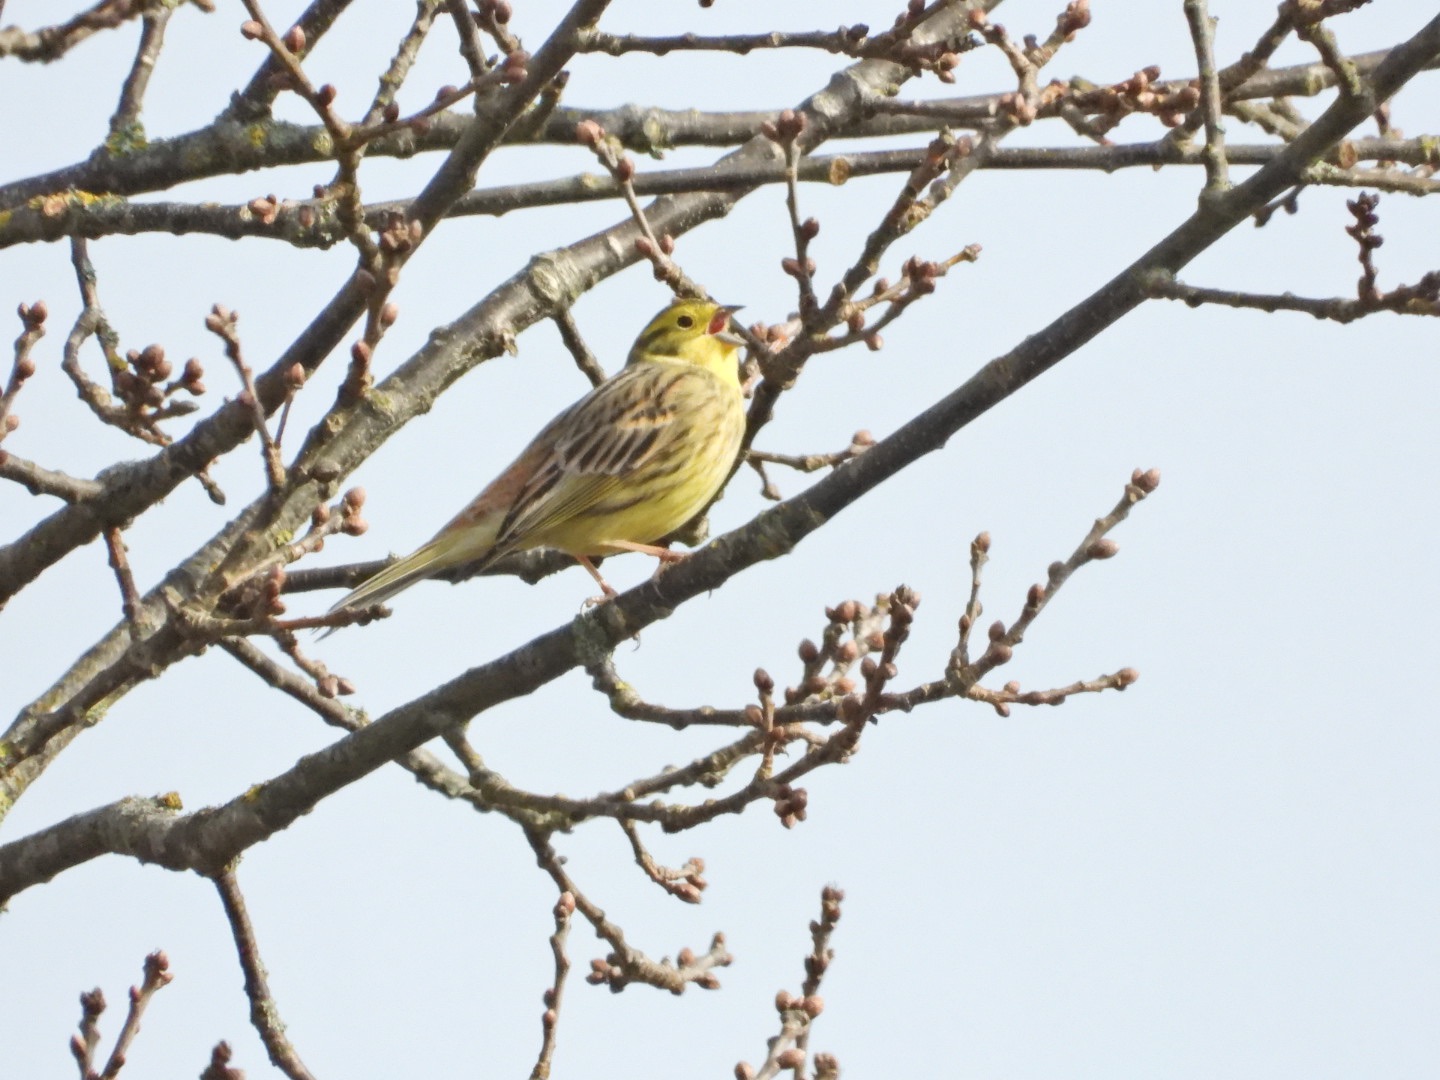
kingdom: Animalia
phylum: Chordata
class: Aves
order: Passeriformes
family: Emberizidae
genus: Emberiza
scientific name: Emberiza citrinella
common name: Gulspurv
